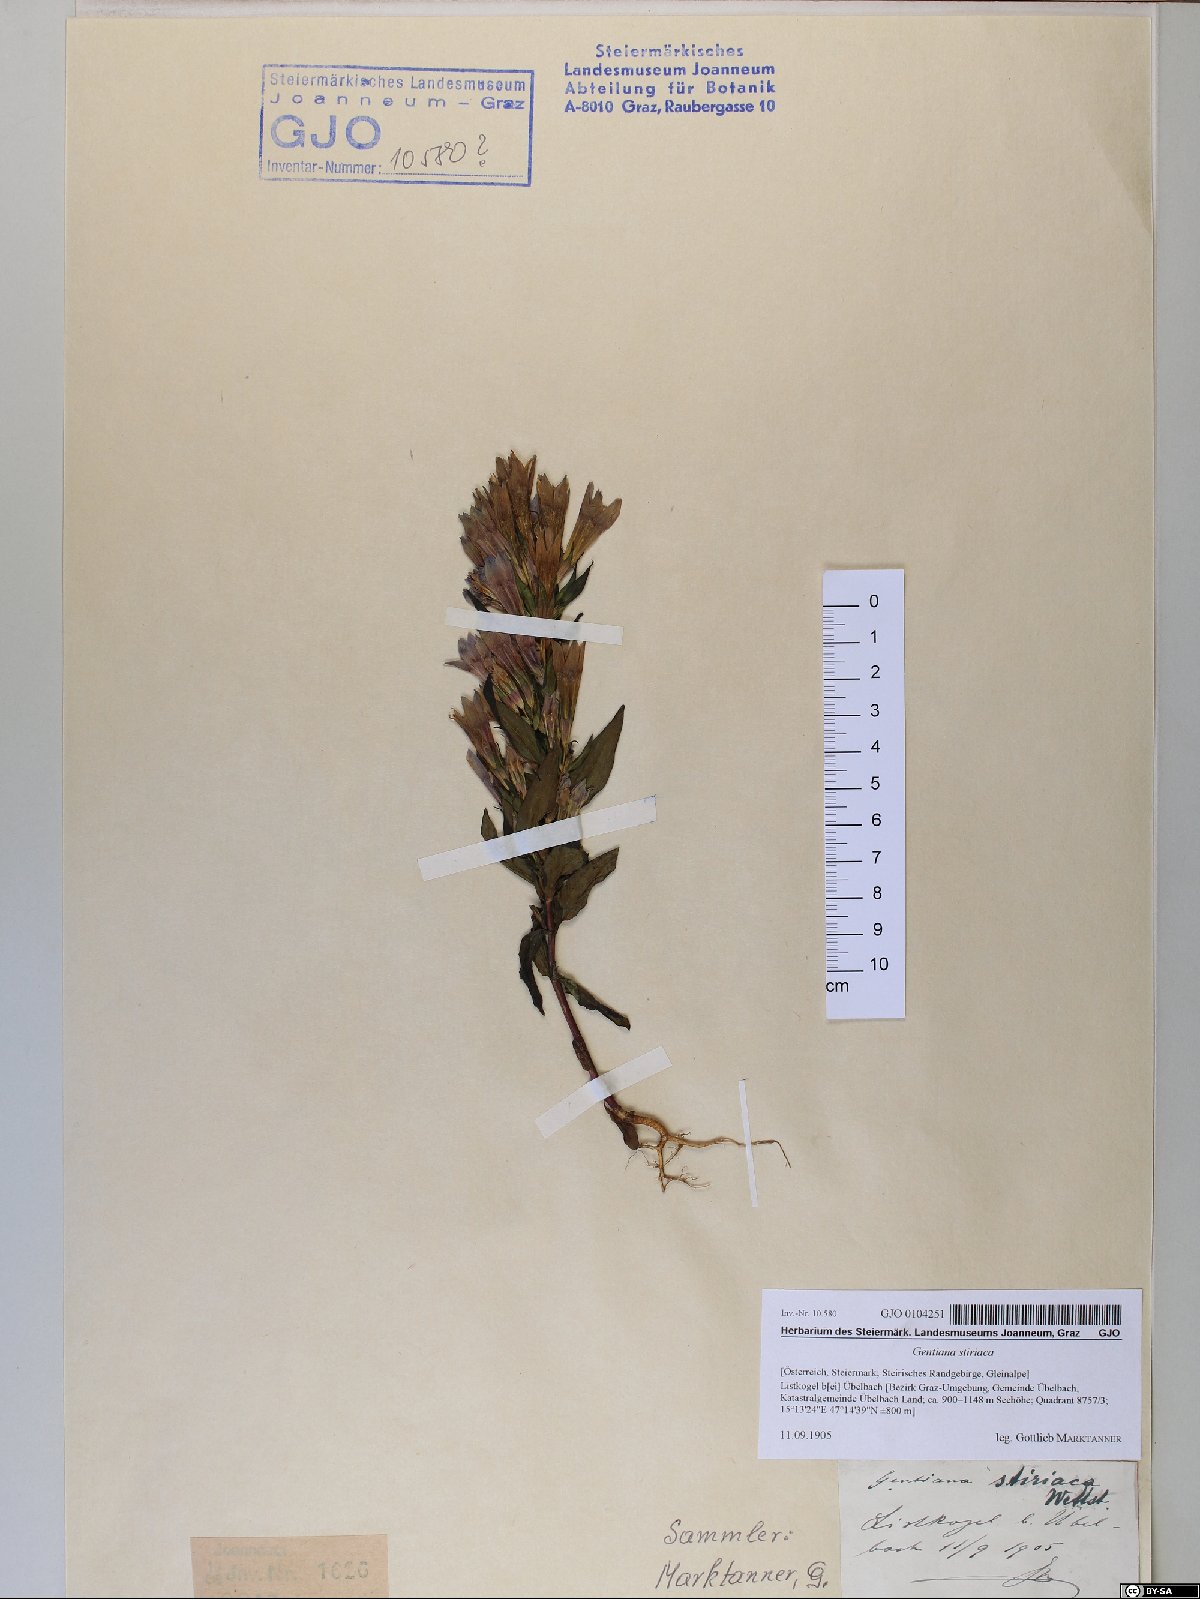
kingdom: Plantae
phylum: Tracheophyta
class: Magnoliopsida
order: Gentianales
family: Gentianaceae
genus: Gentianella
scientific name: Gentianella rhaetica
